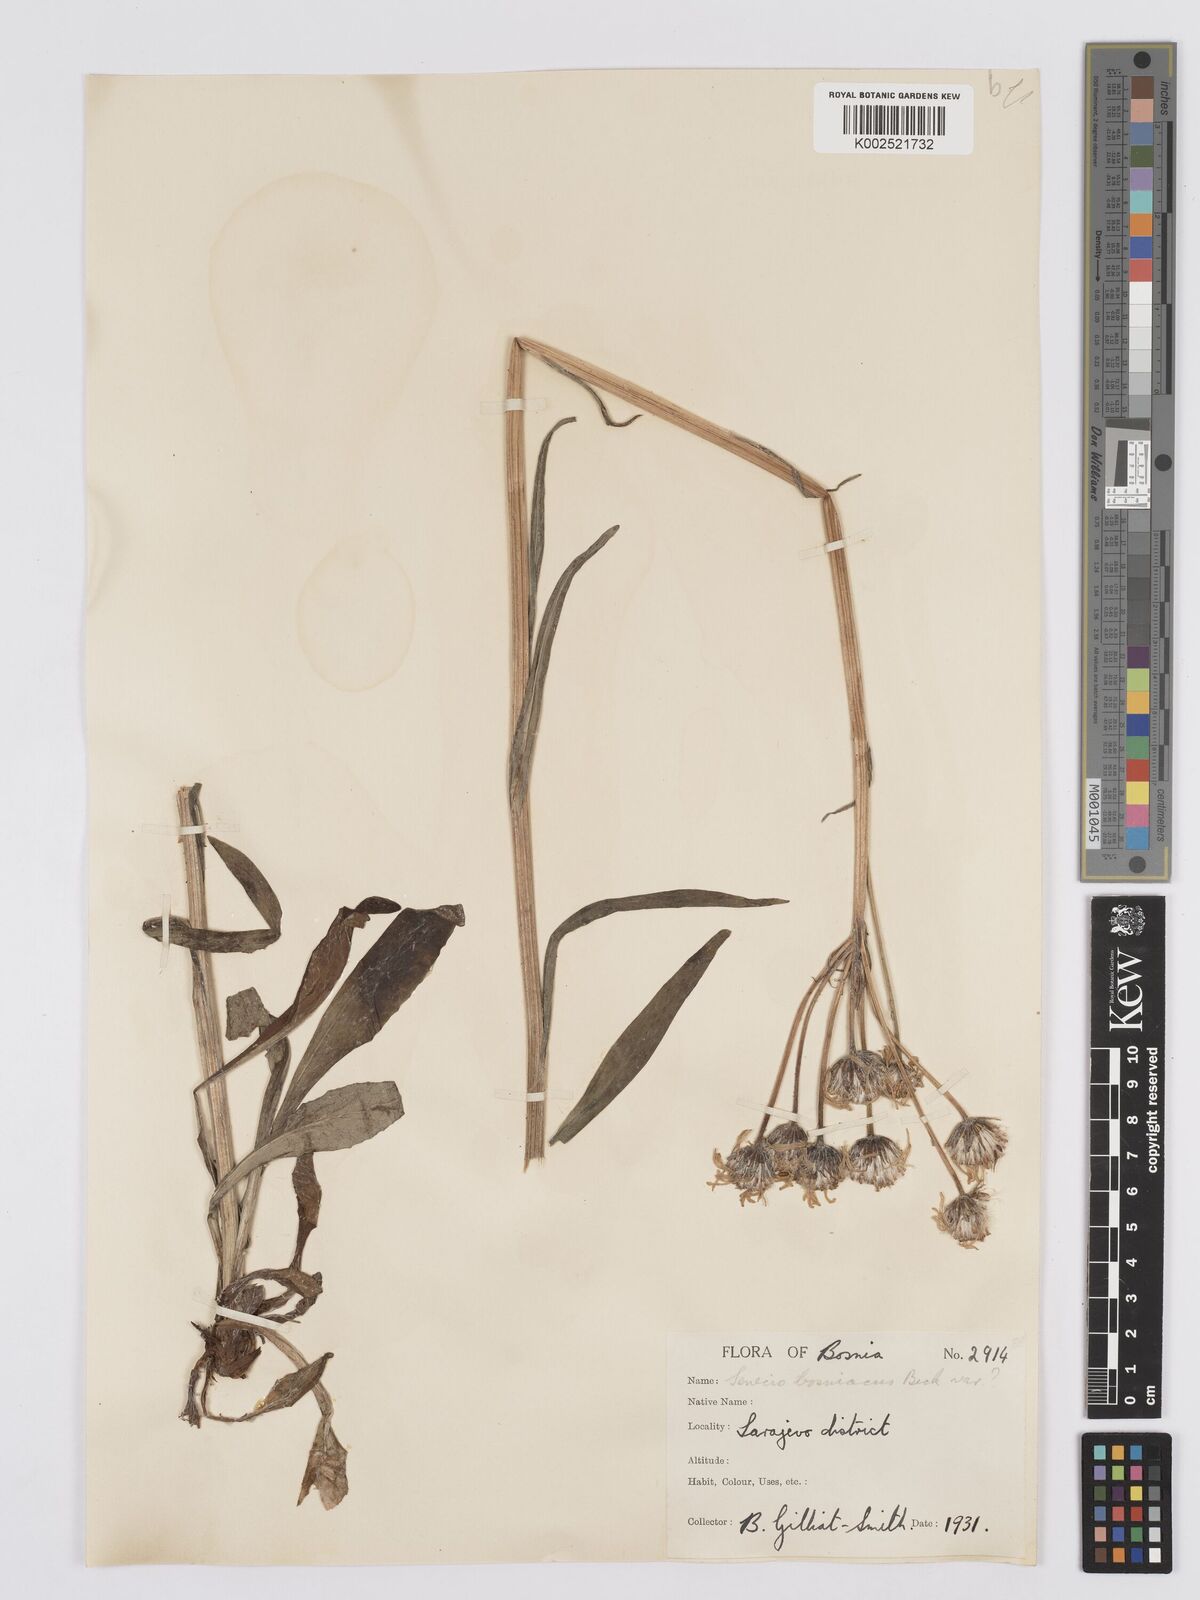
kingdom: Plantae
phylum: Tracheophyta
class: Magnoliopsida
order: Asterales
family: Asteraceae
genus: Tephroseris
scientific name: Tephroseris papposa
